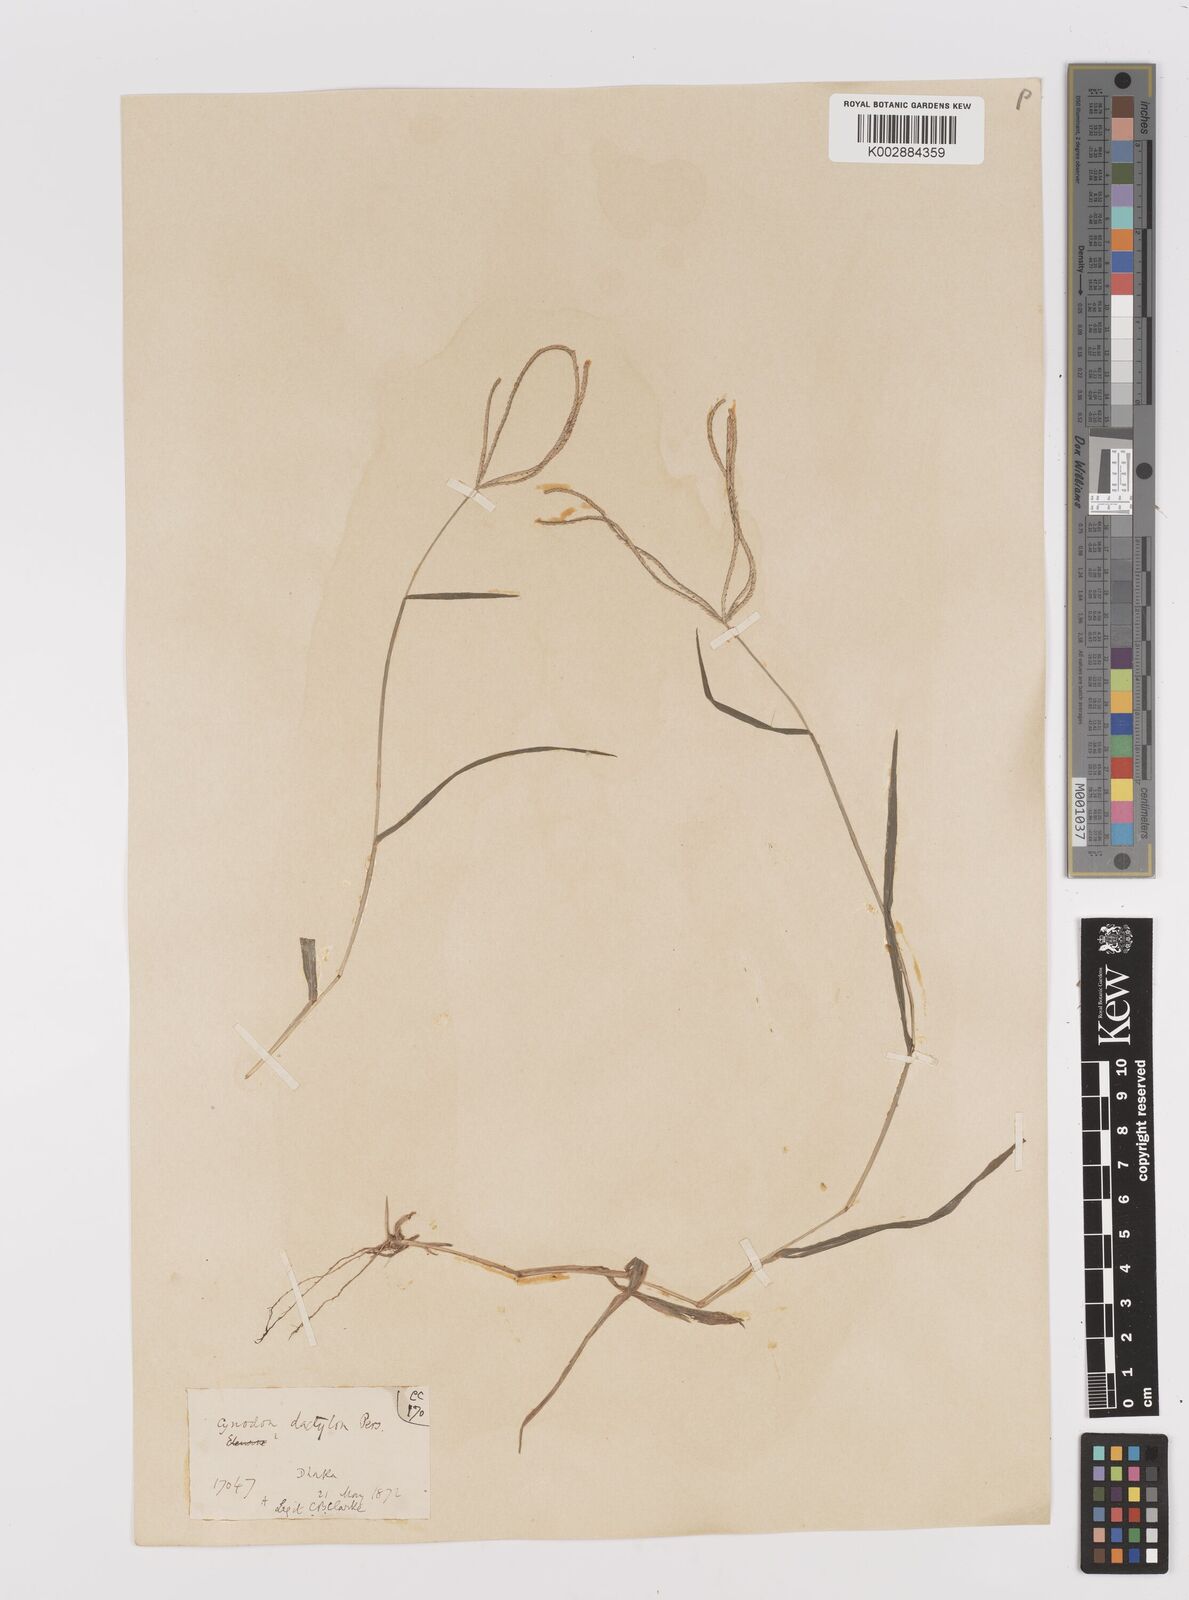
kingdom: Plantae
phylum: Tracheophyta
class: Liliopsida
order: Poales
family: Poaceae
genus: Cynodon
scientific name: Cynodon dactylon
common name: Bermuda grass
